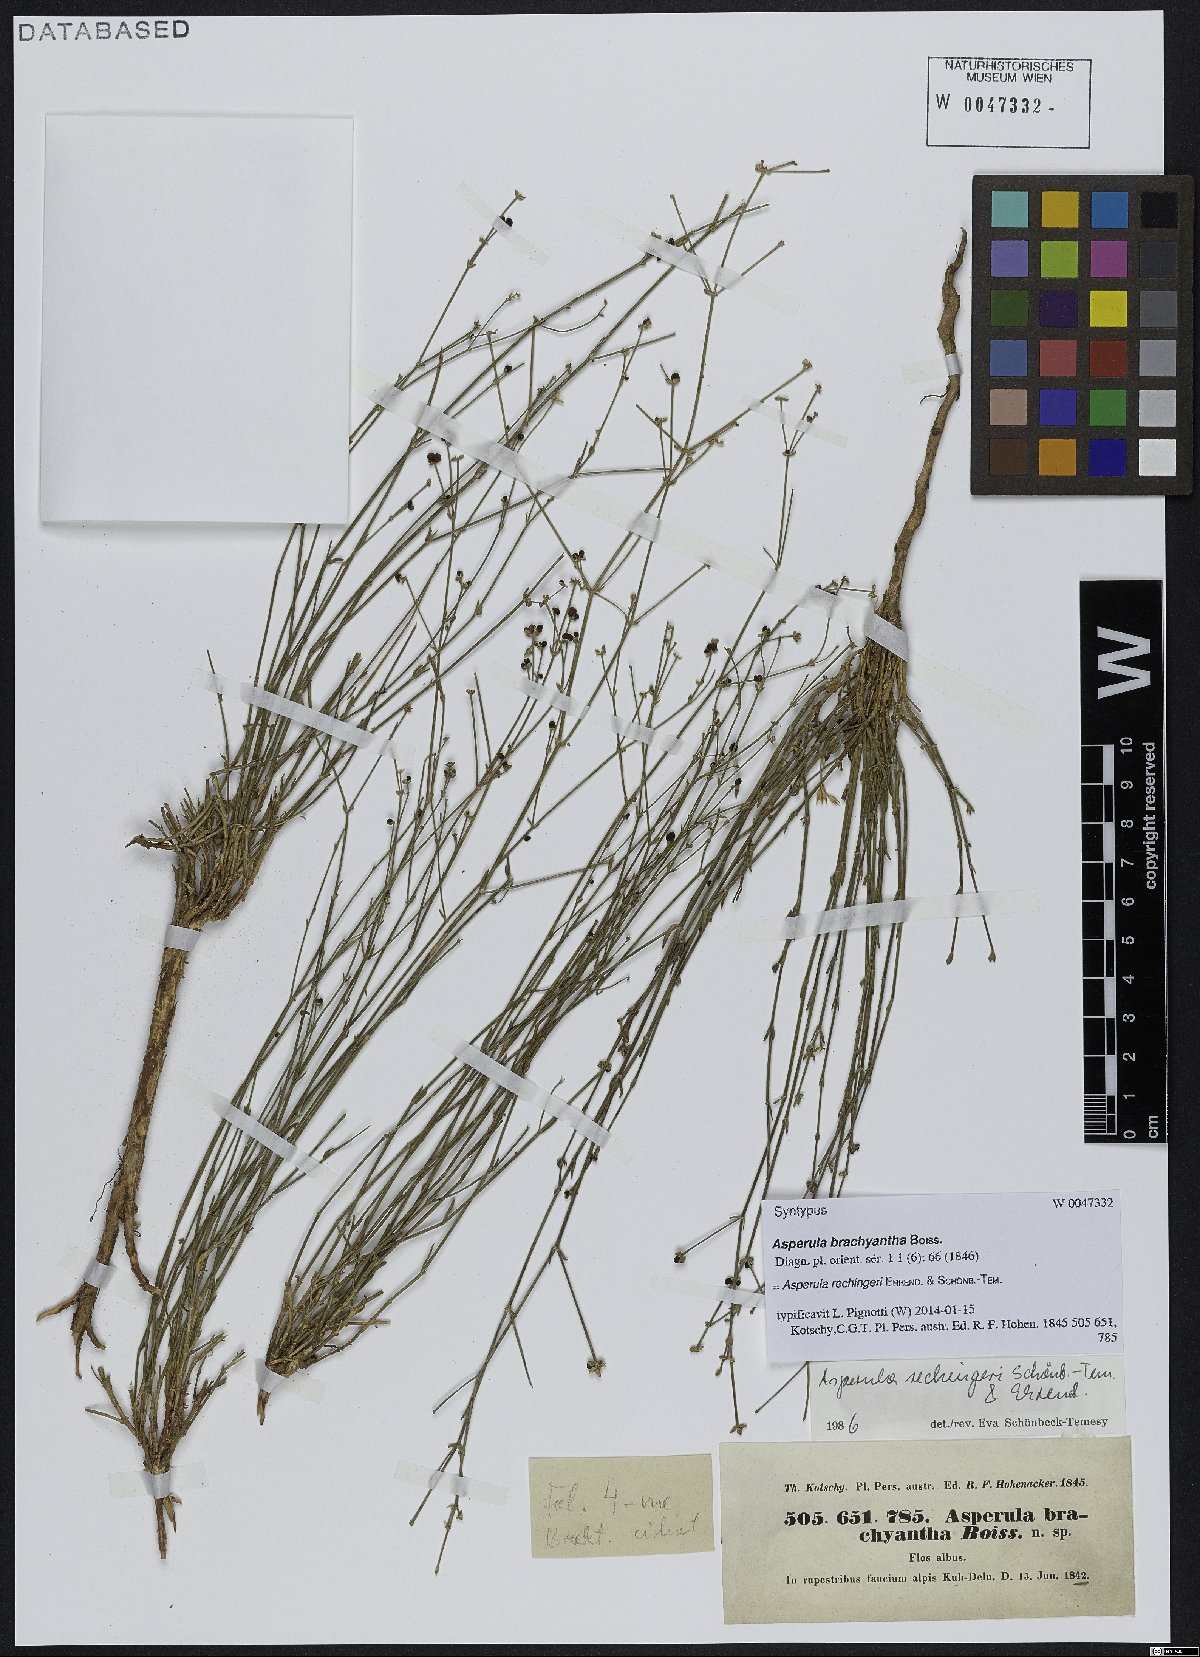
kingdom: Plantae
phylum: Tracheophyta
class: Magnoliopsida
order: Gentianales
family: Rubiaceae
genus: Asperula
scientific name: Asperula rechingeri
